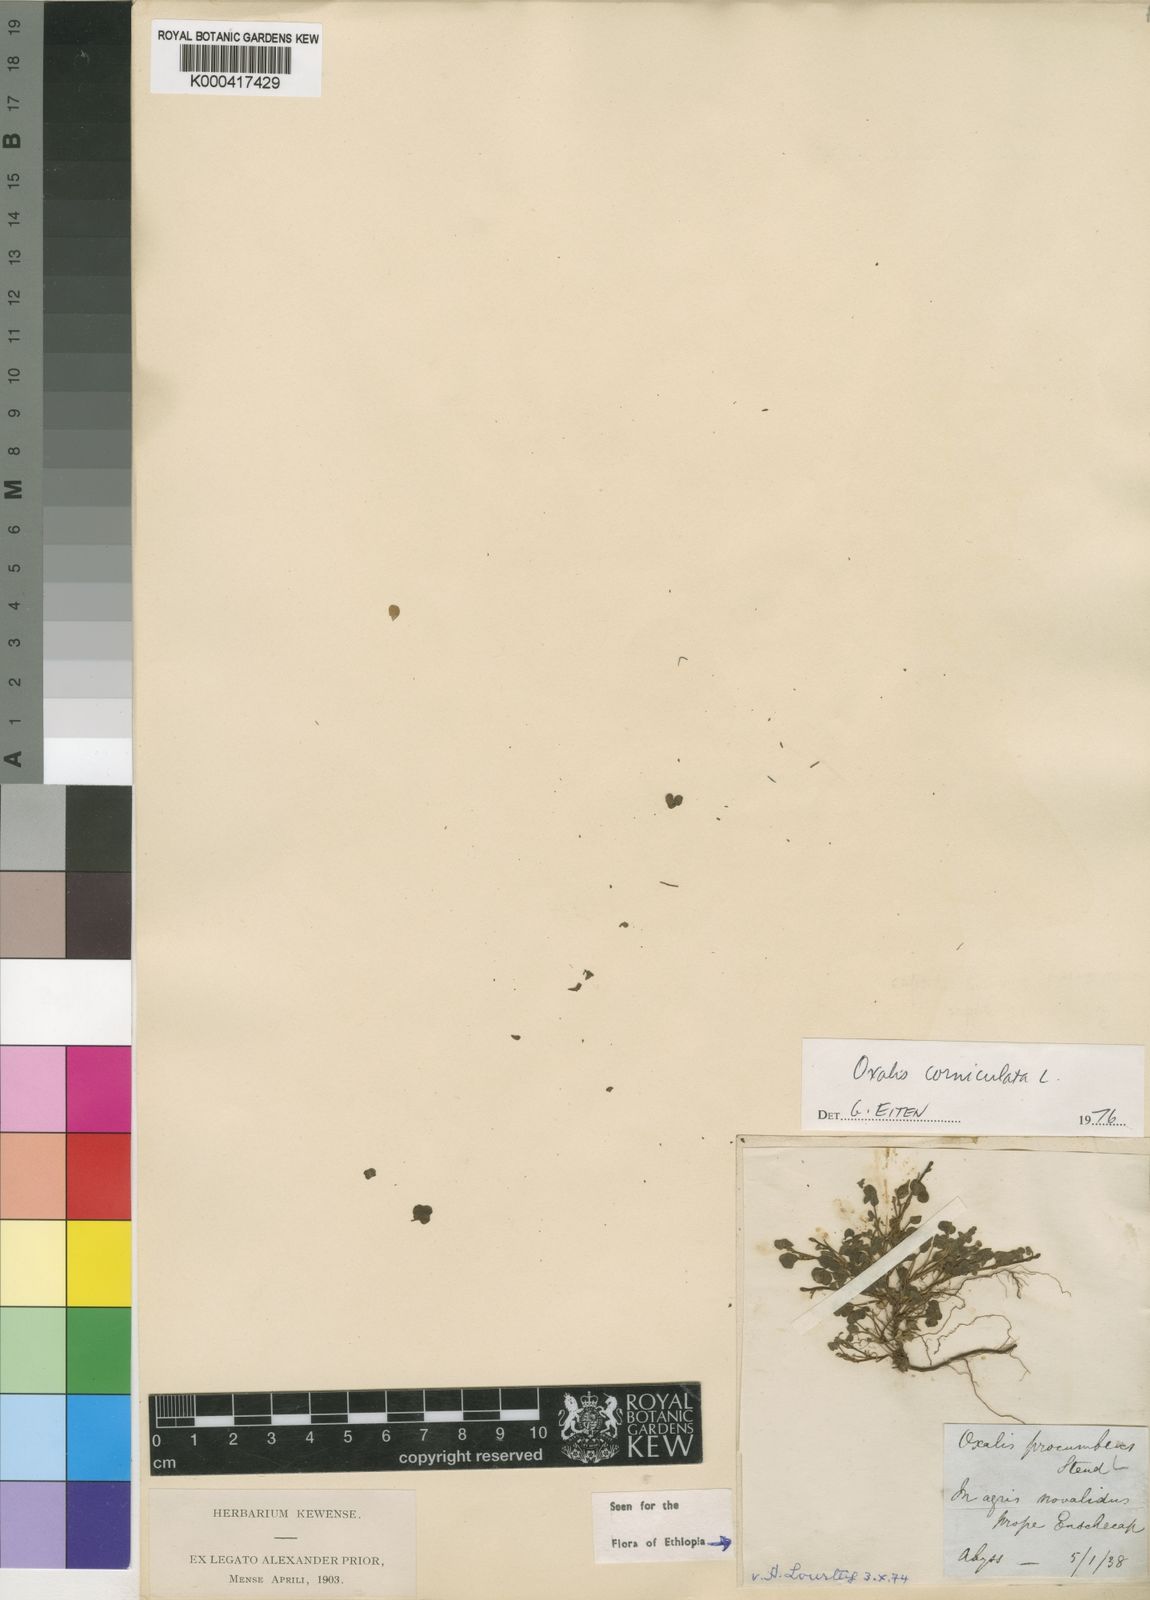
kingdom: Plantae
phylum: Tracheophyta
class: Magnoliopsida
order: Oxalidales
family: Oxalidaceae
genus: Oxalis
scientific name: Oxalis procumbens
